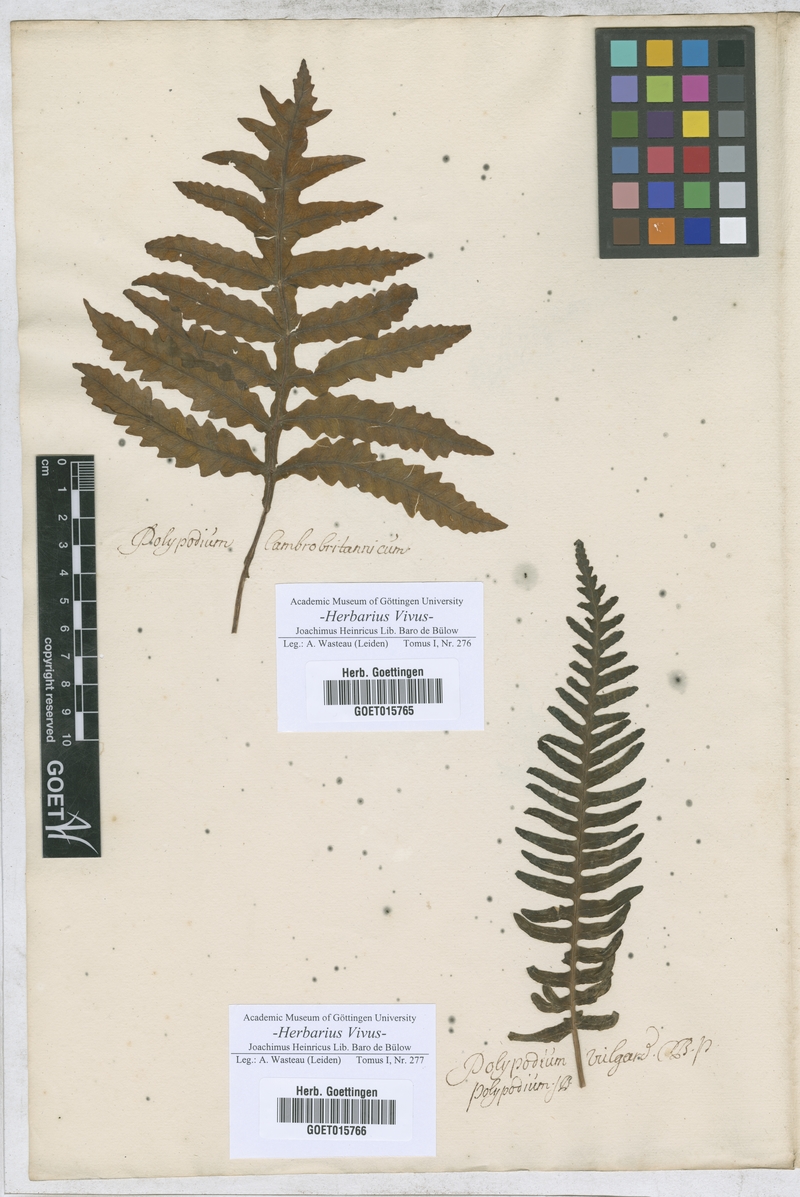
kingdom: Plantae
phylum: Tracheophyta
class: Polypodiopsida
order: Polypodiales
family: Polypodiaceae
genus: Polypodium
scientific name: Polypodium
